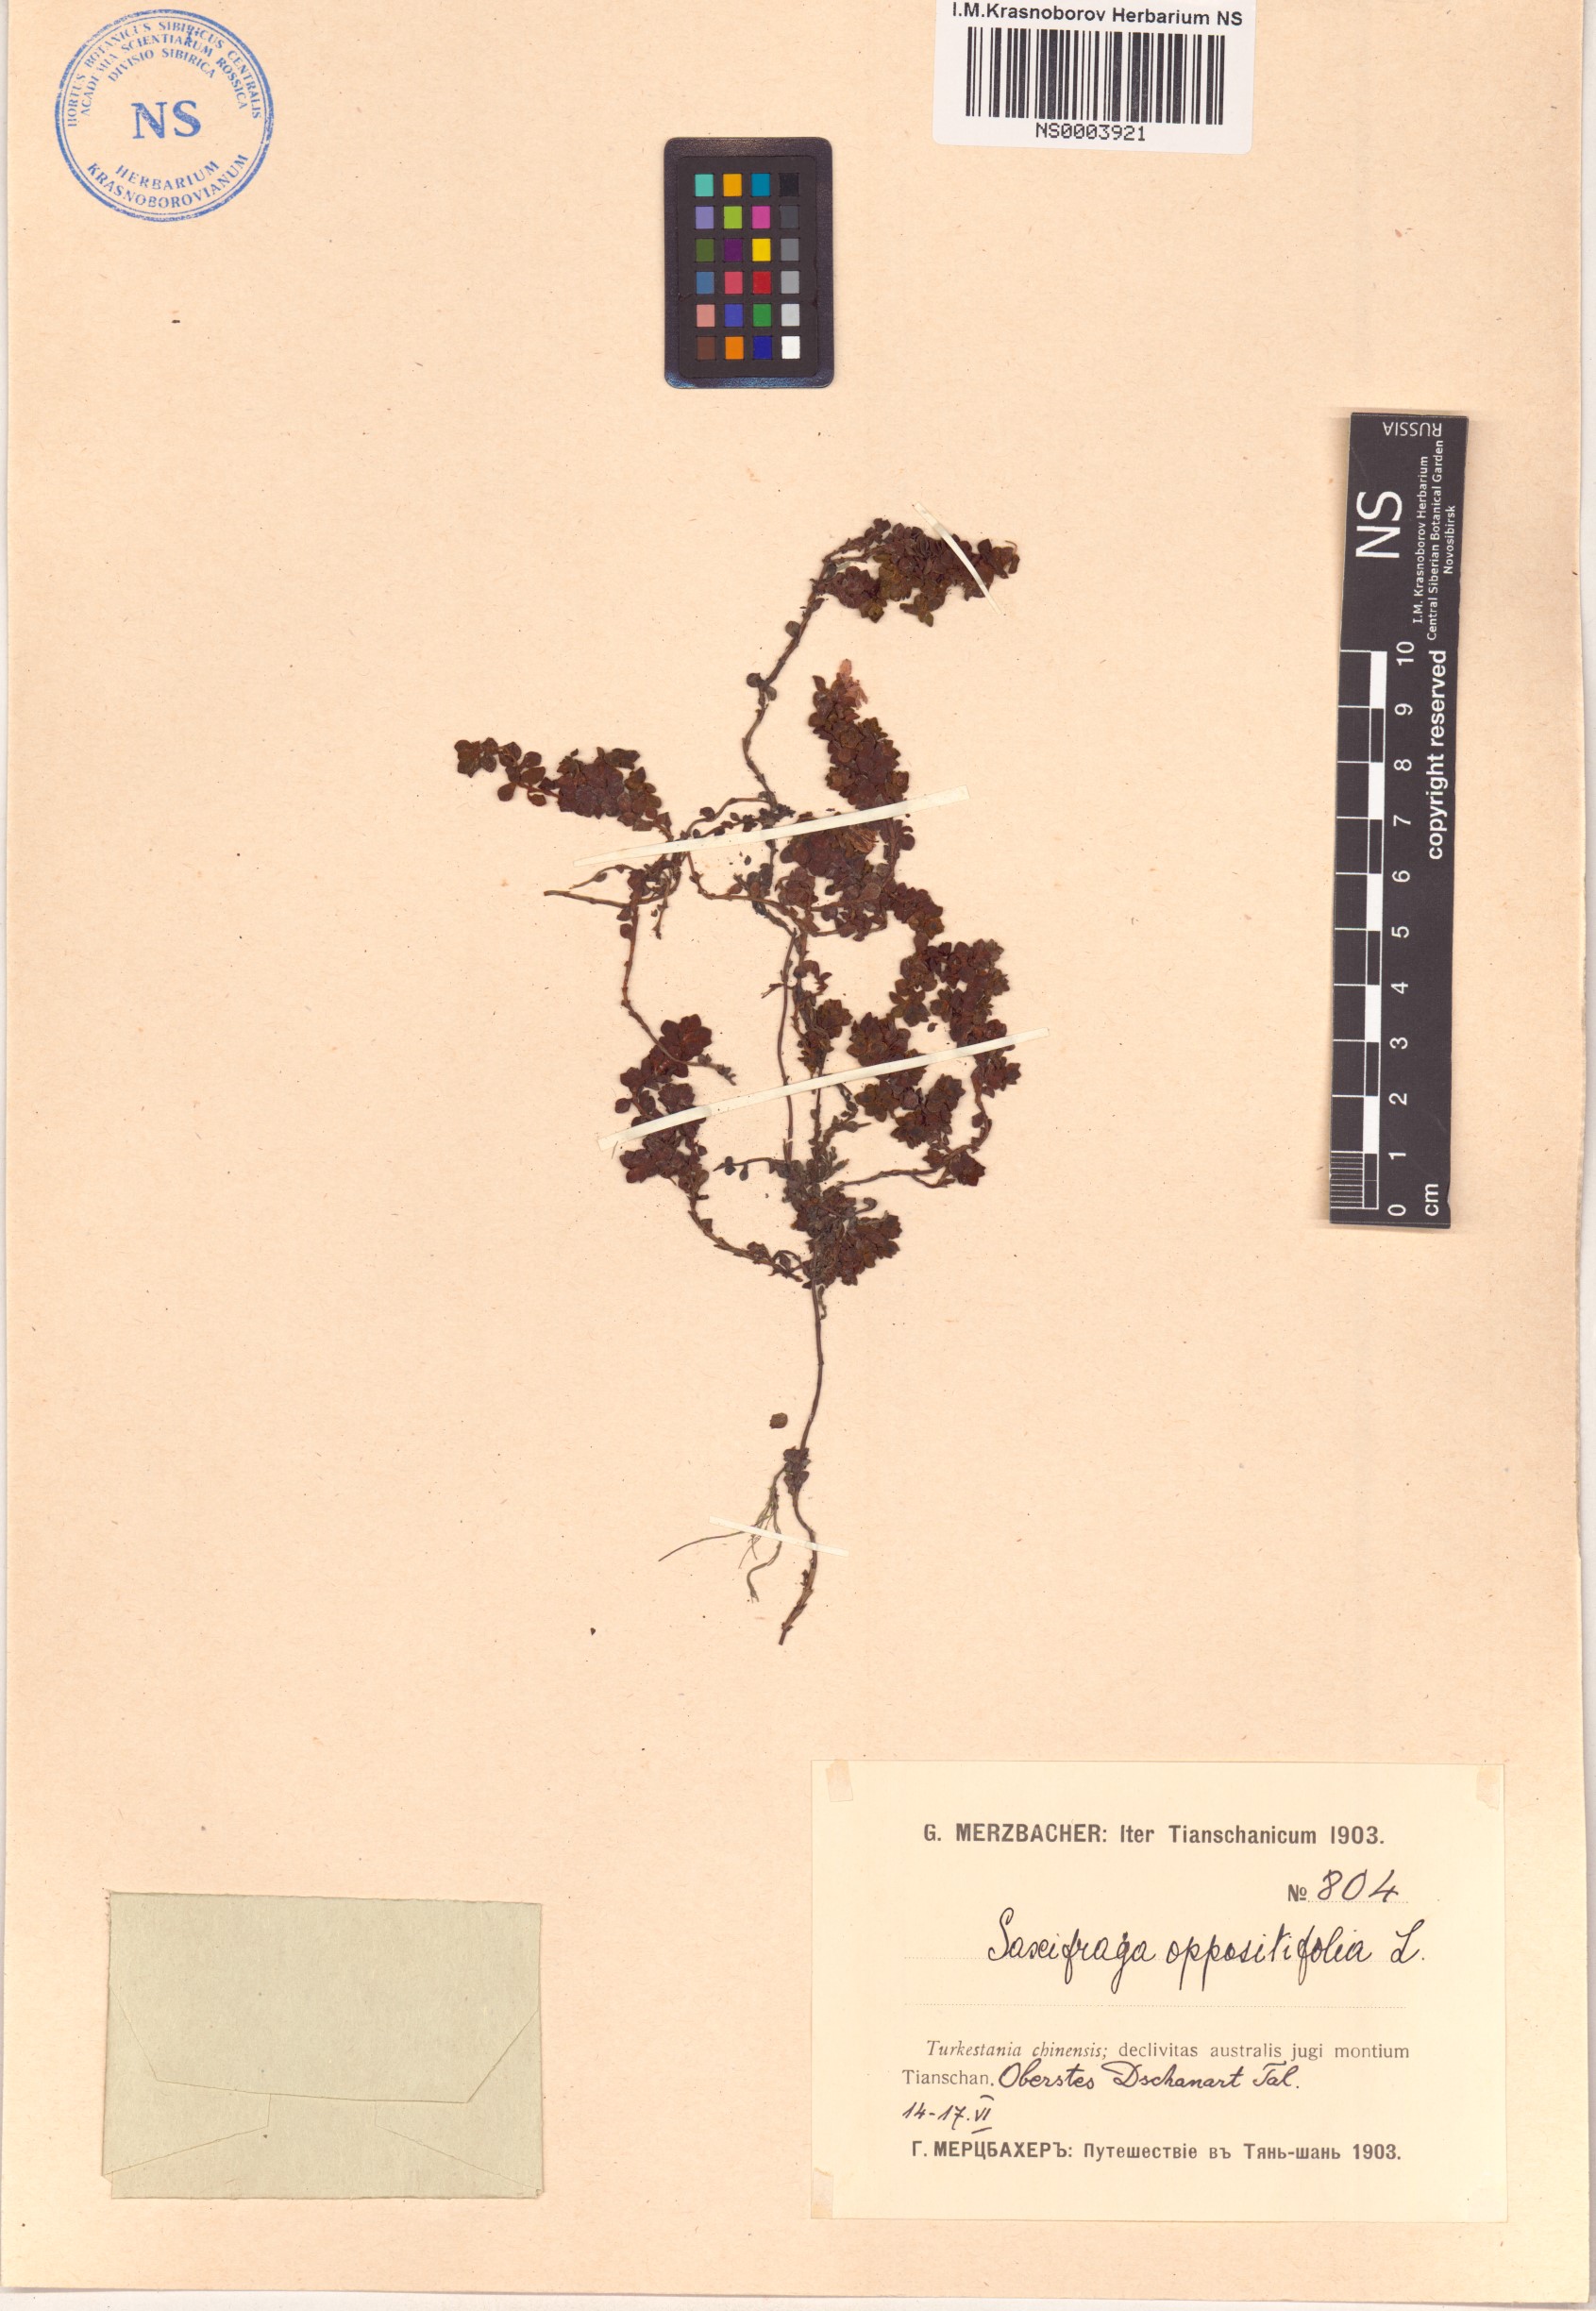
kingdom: Plantae
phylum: Tracheophyta
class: Magnoliopsida
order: Saxifragales
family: Saxifragaceae
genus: Saxifraga
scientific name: Saxifraga oppositifolia
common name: Purple saxifrage
